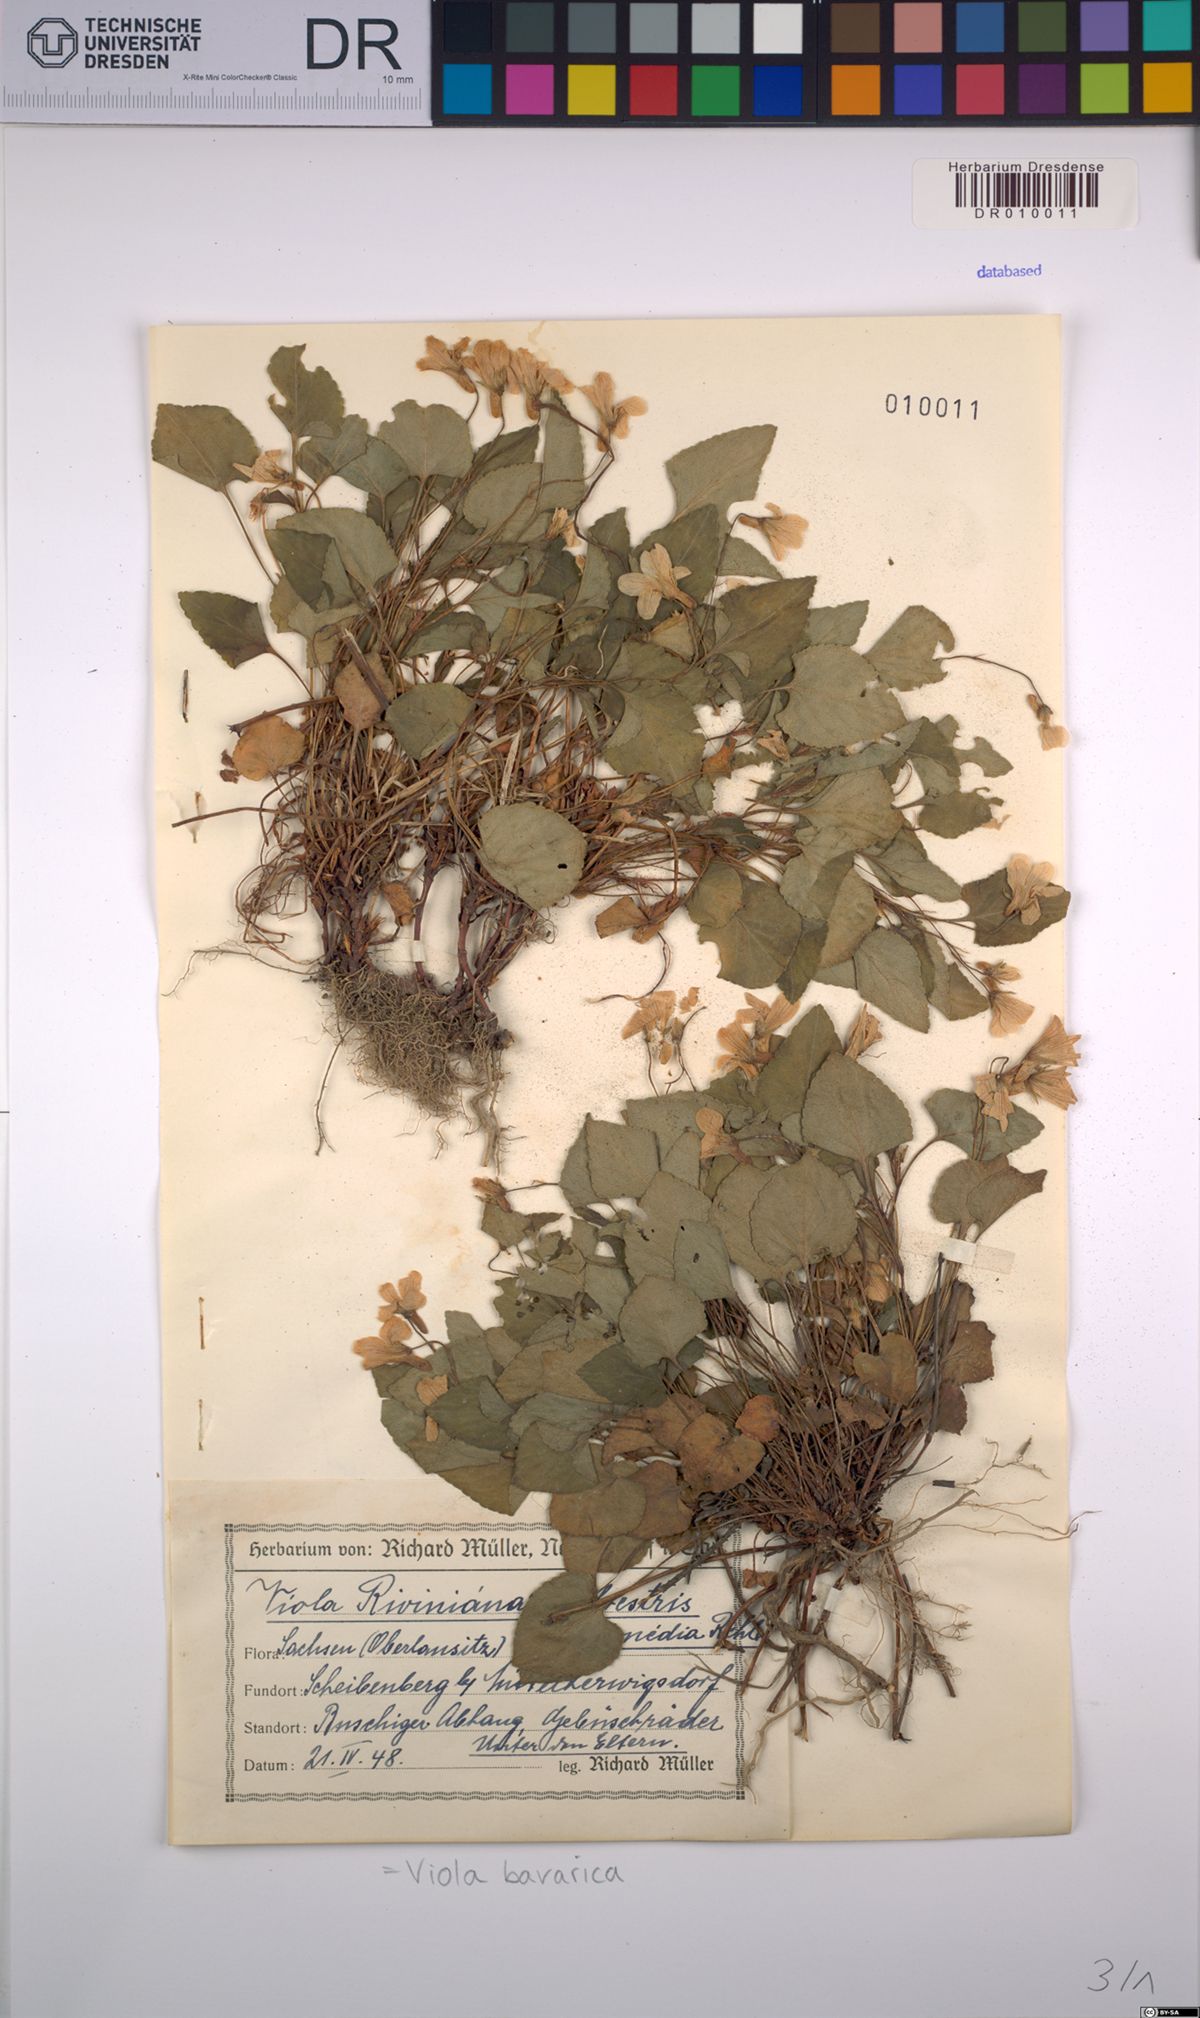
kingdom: Plantae
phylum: Tracheophyta
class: Magnoliopsida
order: Malpighiales
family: Violaceae
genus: Viola
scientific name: Viola bavarica
